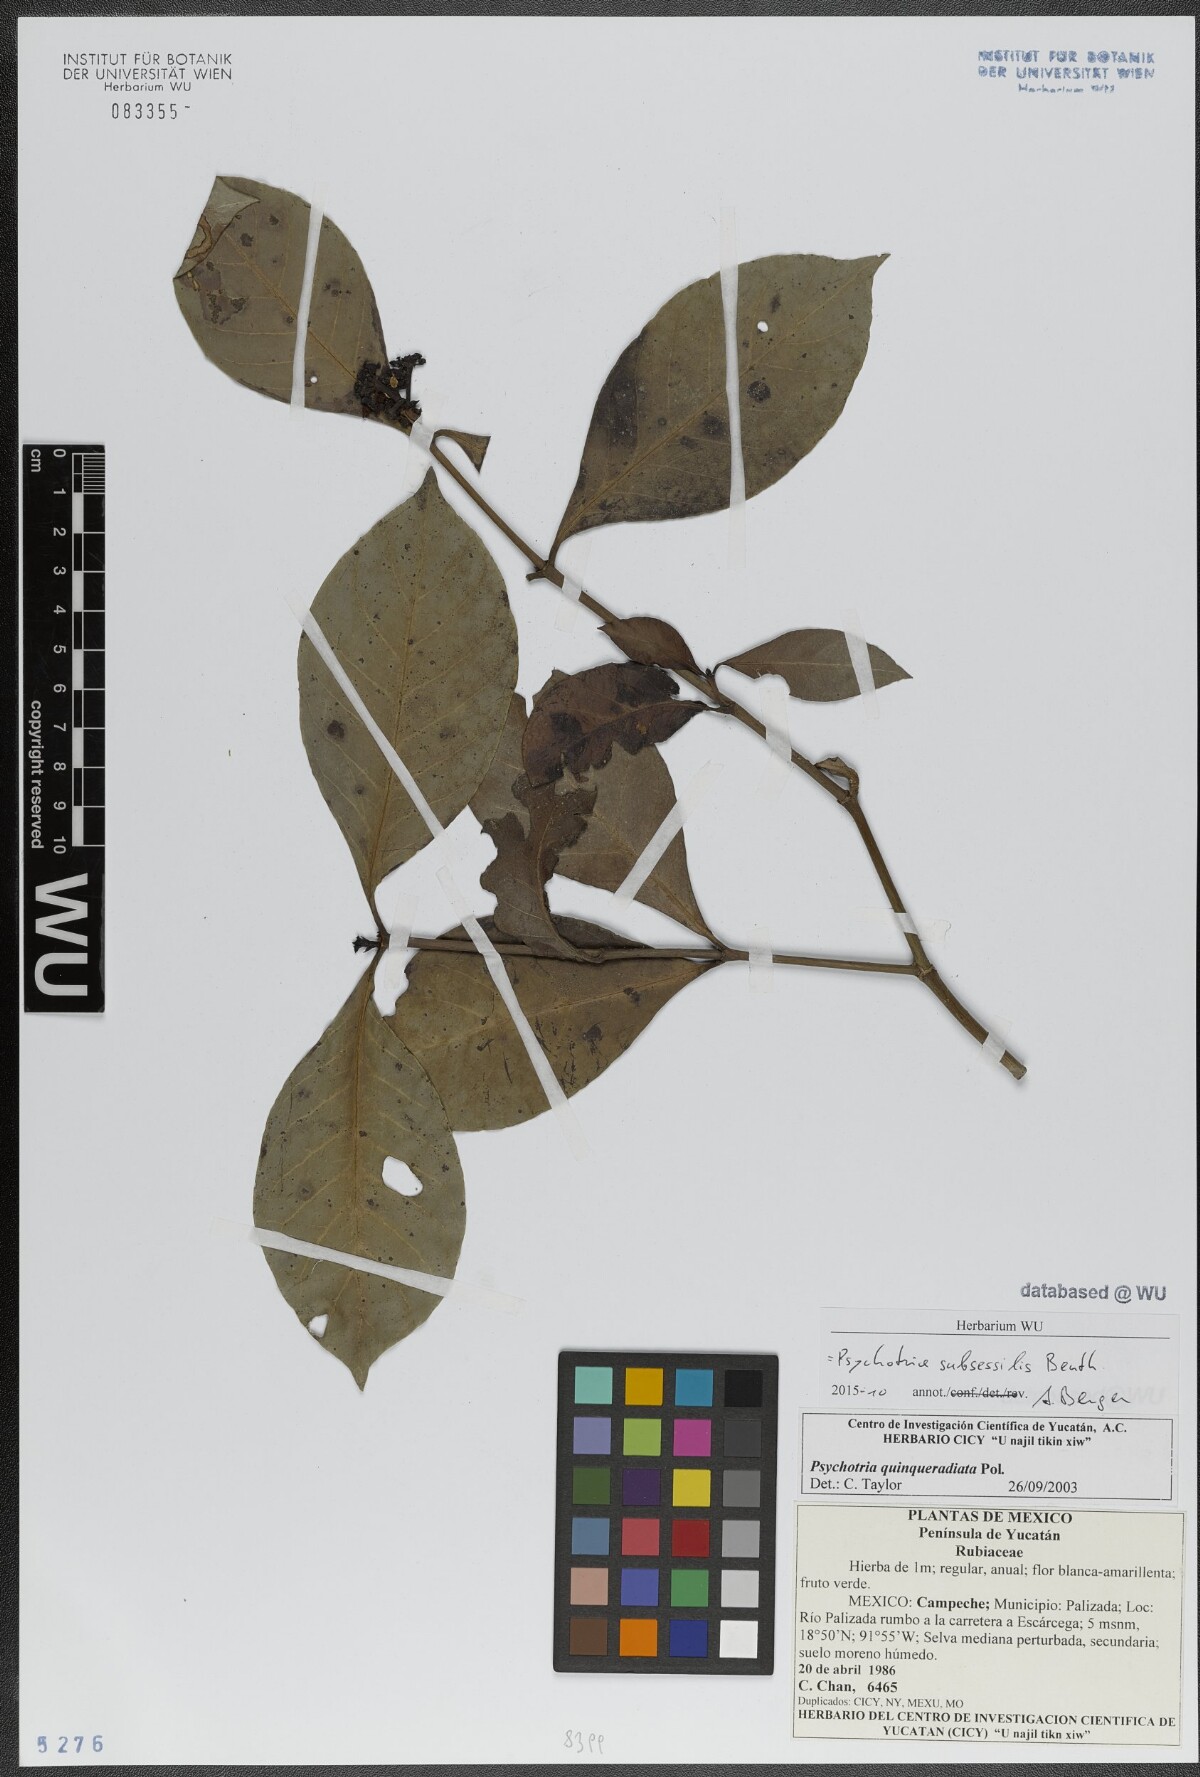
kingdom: Plantae
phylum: Tracheophyta
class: Magnoliopsida
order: Gentianales
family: Rubiaceae
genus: Psychotria
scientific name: Psychotria subsessilis
